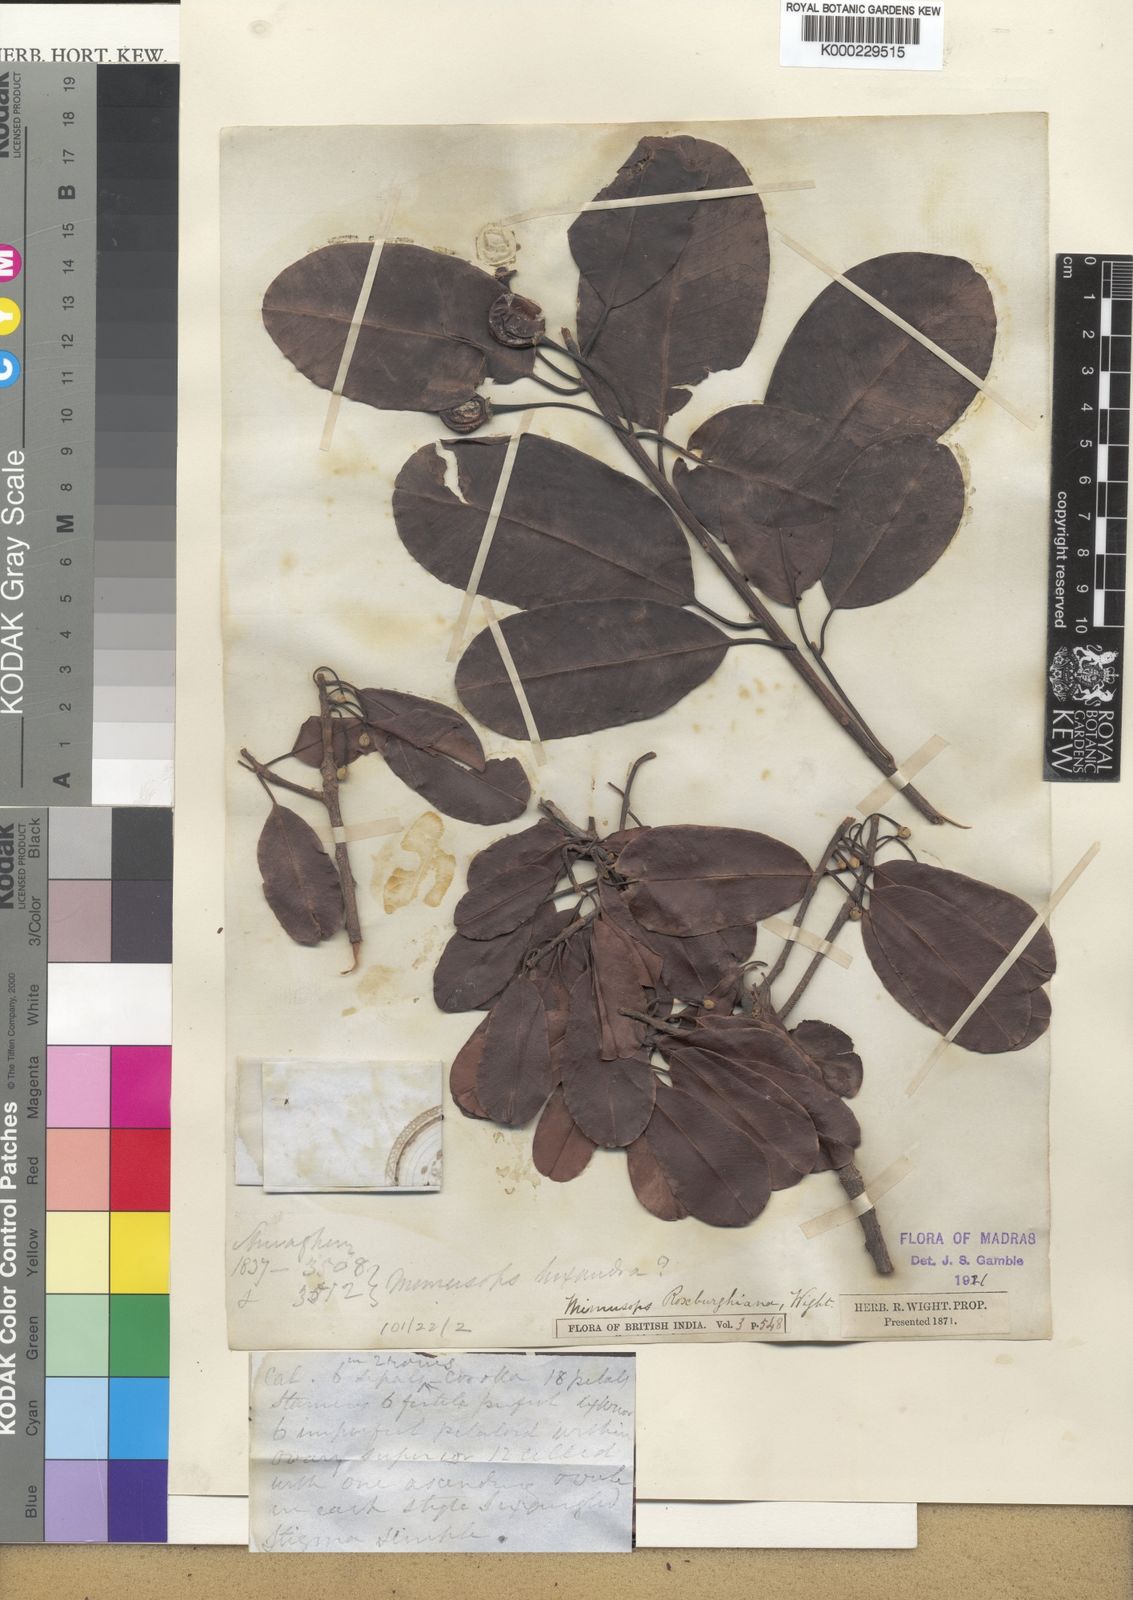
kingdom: Plantae
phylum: Tracheophyta
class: Magnoliopsida
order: Ericales
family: Sapotaceae
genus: Manilkara
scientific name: Manilkara
